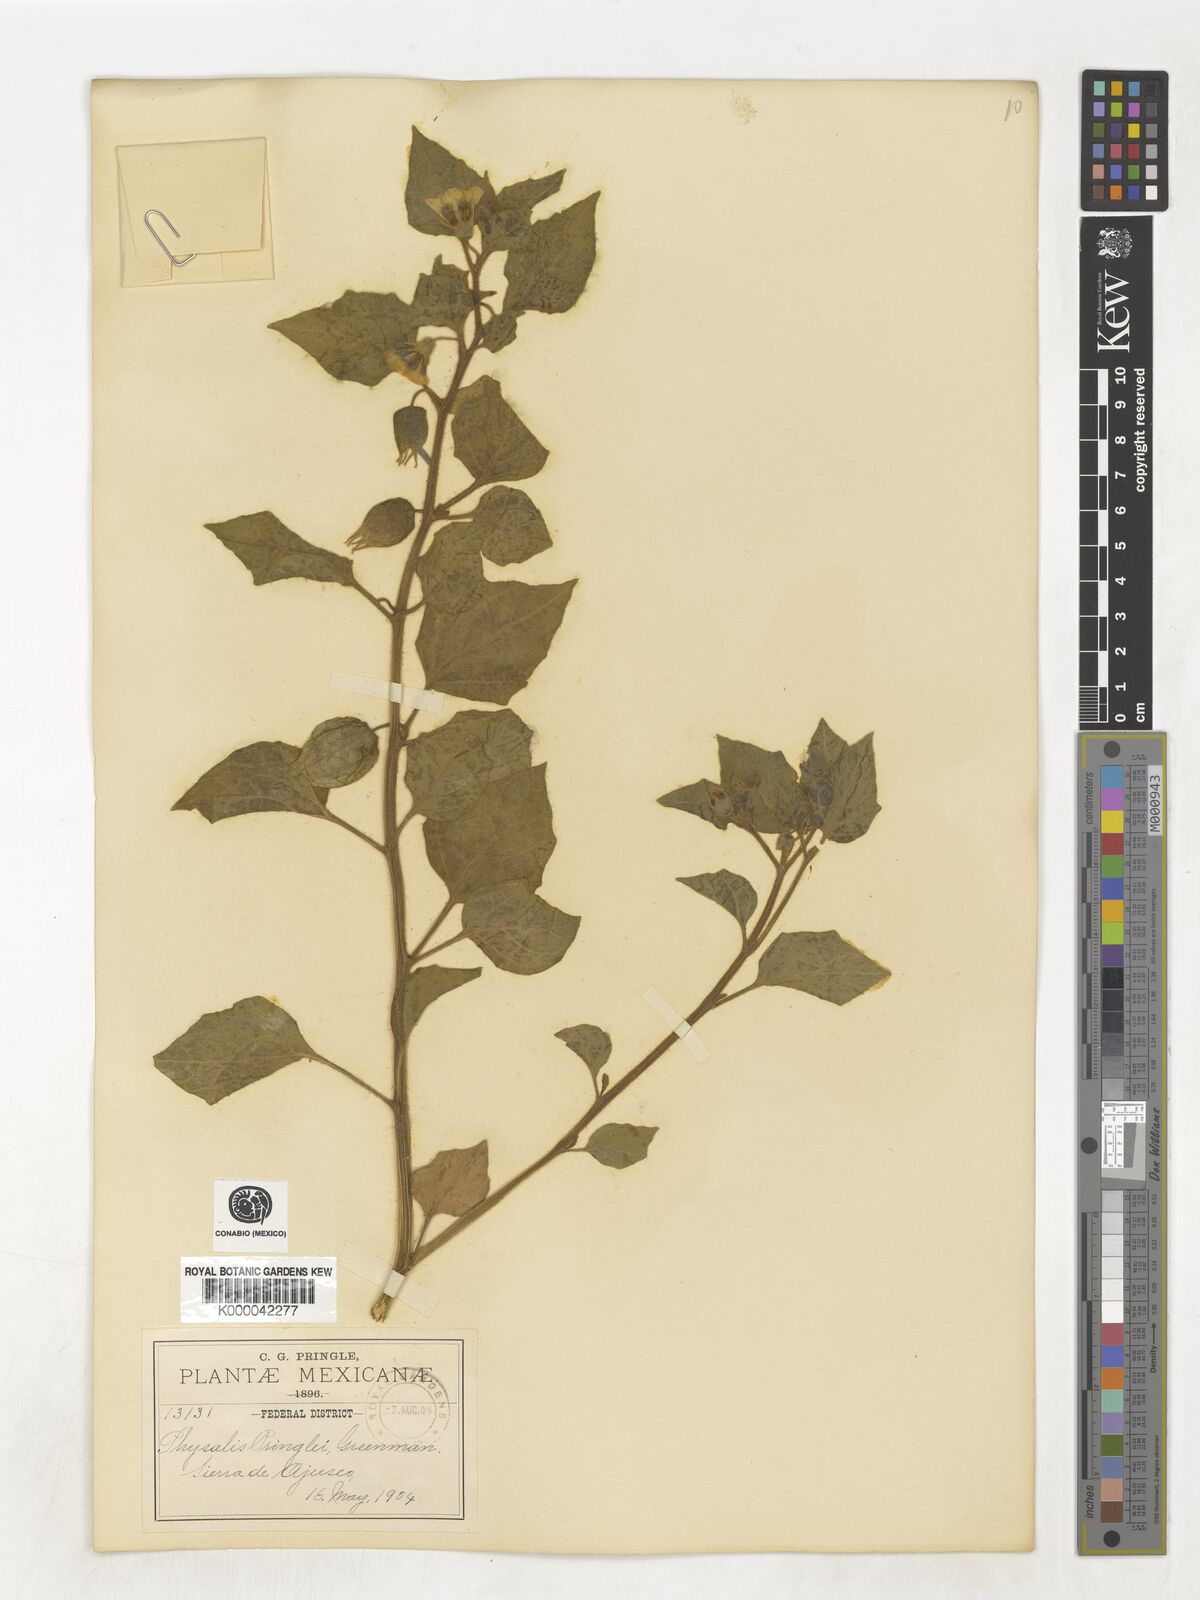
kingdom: Plantae
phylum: Tracheophyta
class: Magnoliopsida
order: Solanales
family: Solanaceae
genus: Physalis
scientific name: Physalis pringlei
